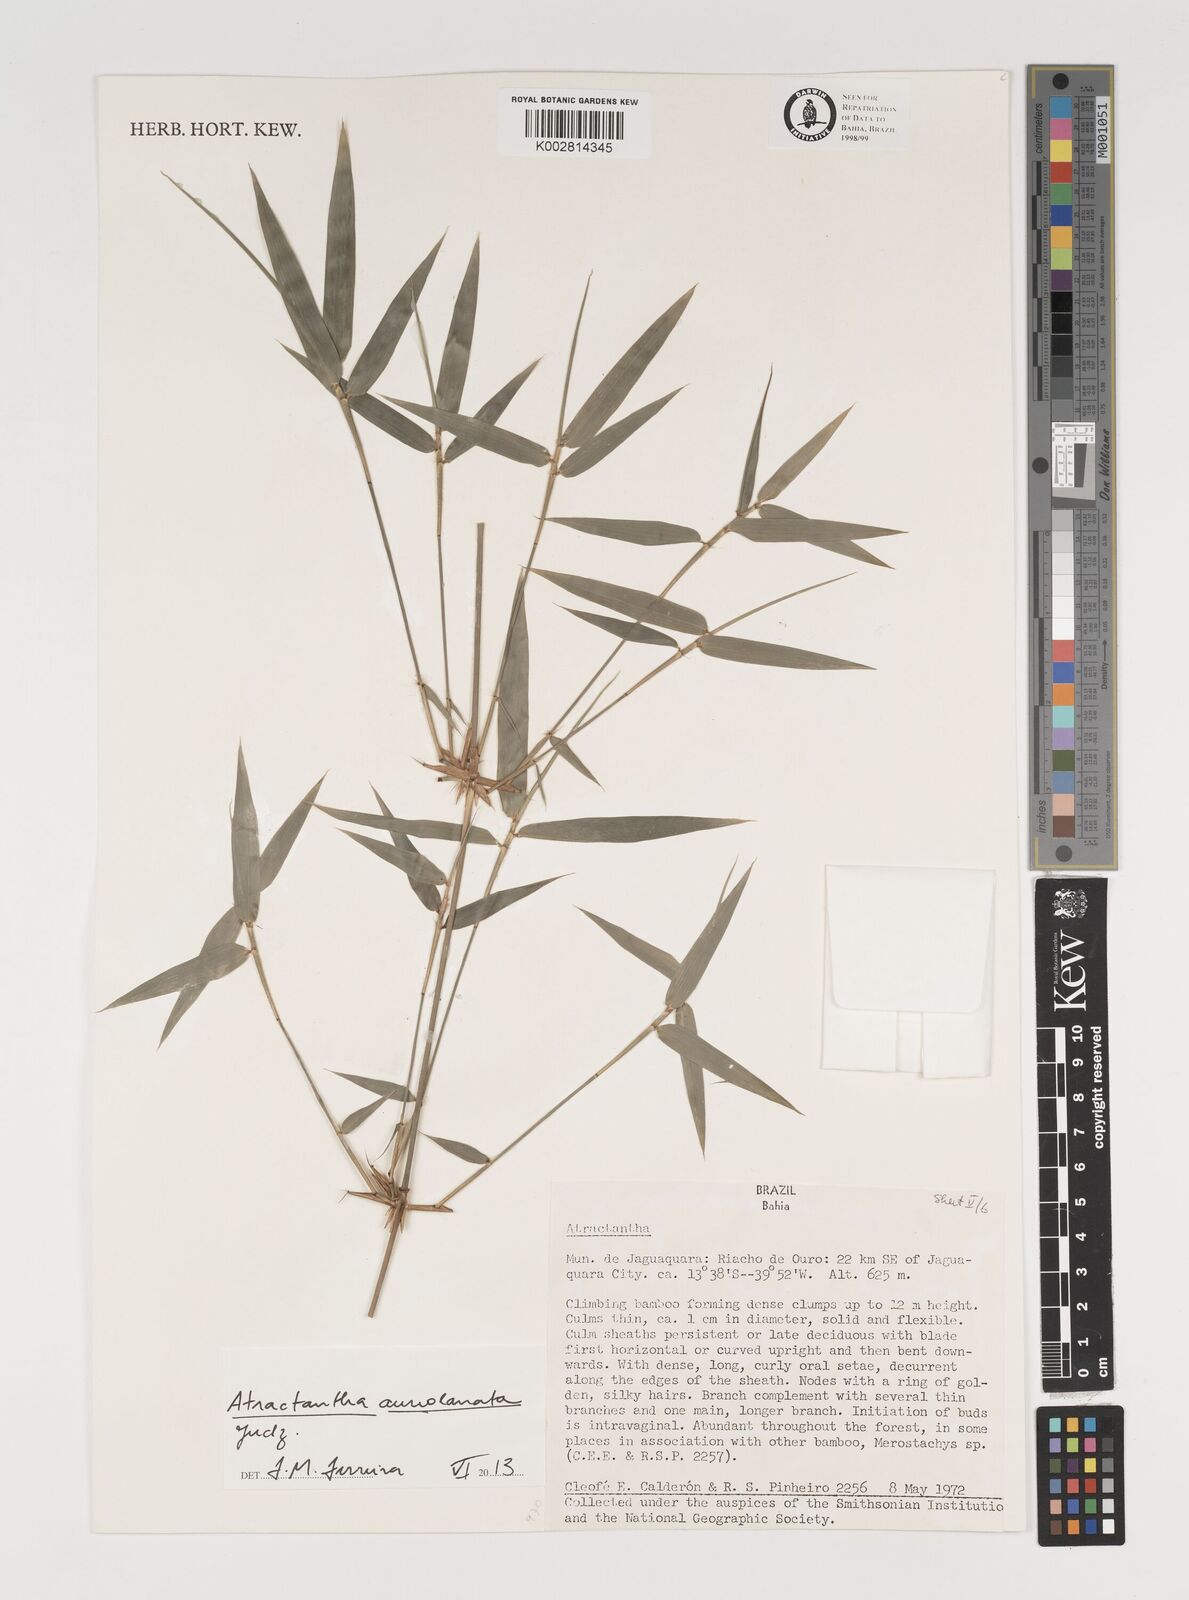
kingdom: Plantae
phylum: Tracheophyta
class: Liliopsida
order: Poales
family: Poaceae
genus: Atractantha
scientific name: Atractantha aureolanata
